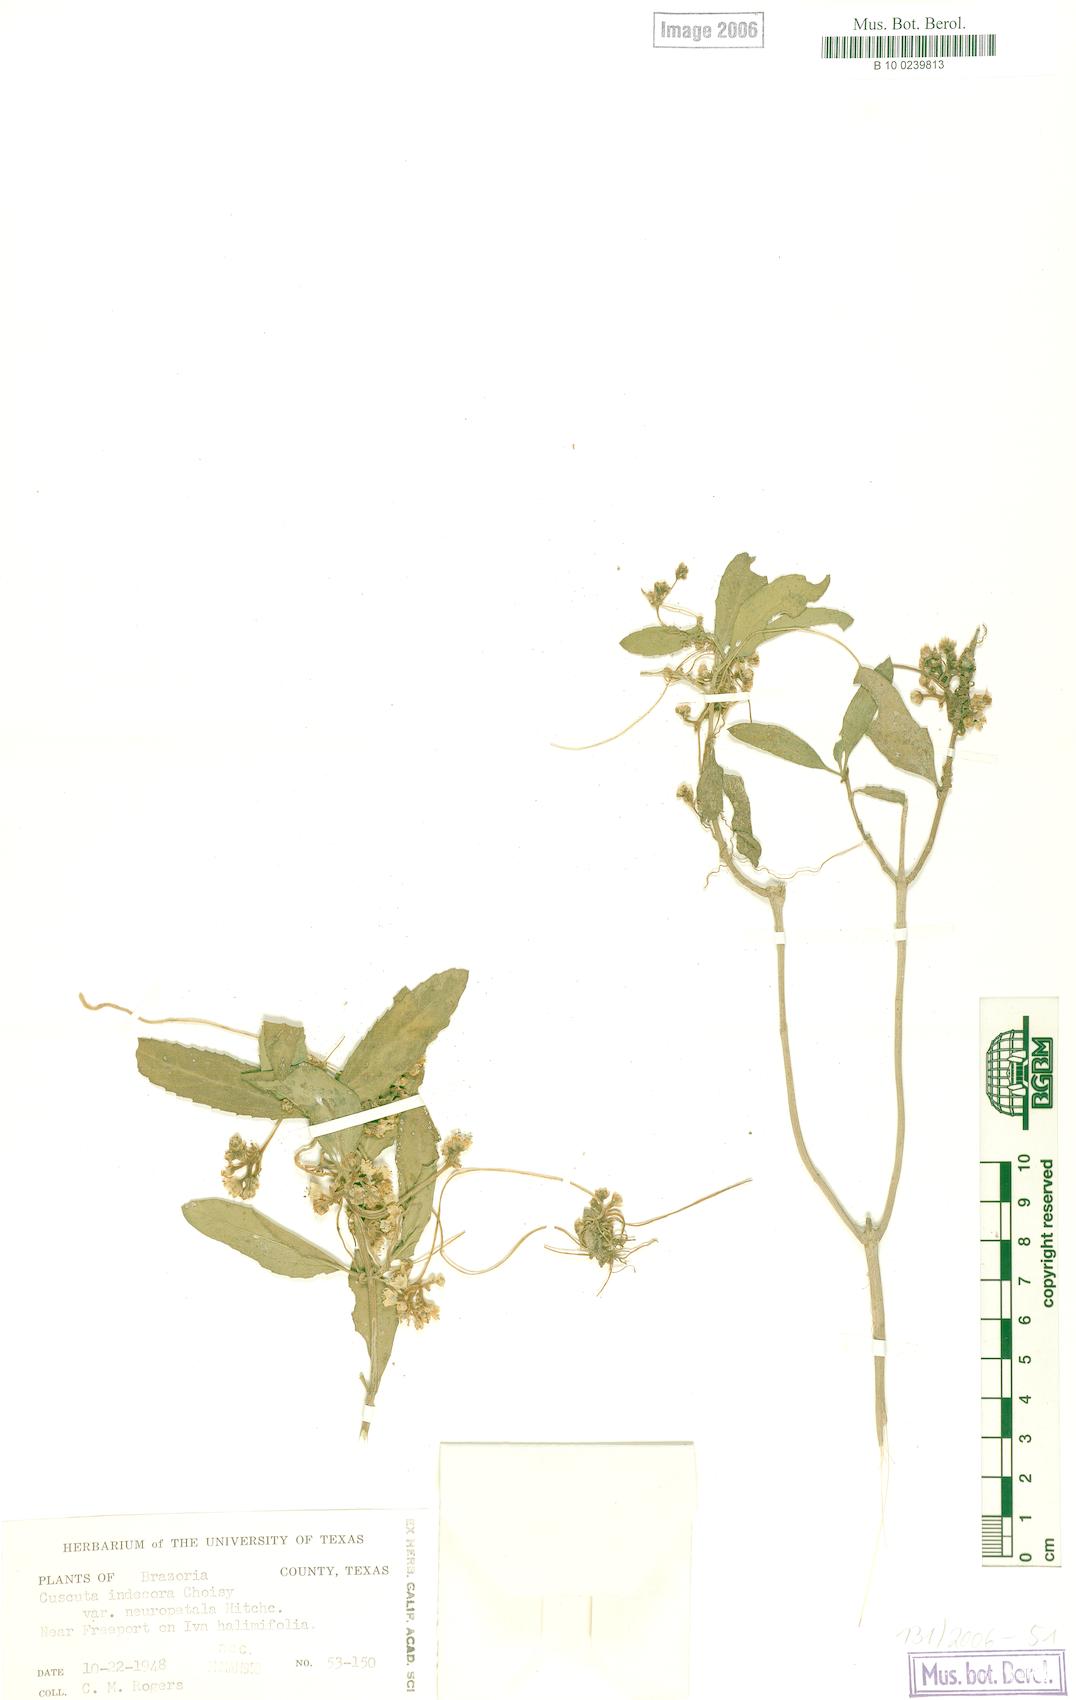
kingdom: Plantae
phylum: Tracheophyta
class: Magnoliopsida
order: Solanales
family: Convolvulaceae
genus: Cuscuta
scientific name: Cuscuta indecora
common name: Large-seed dodder
